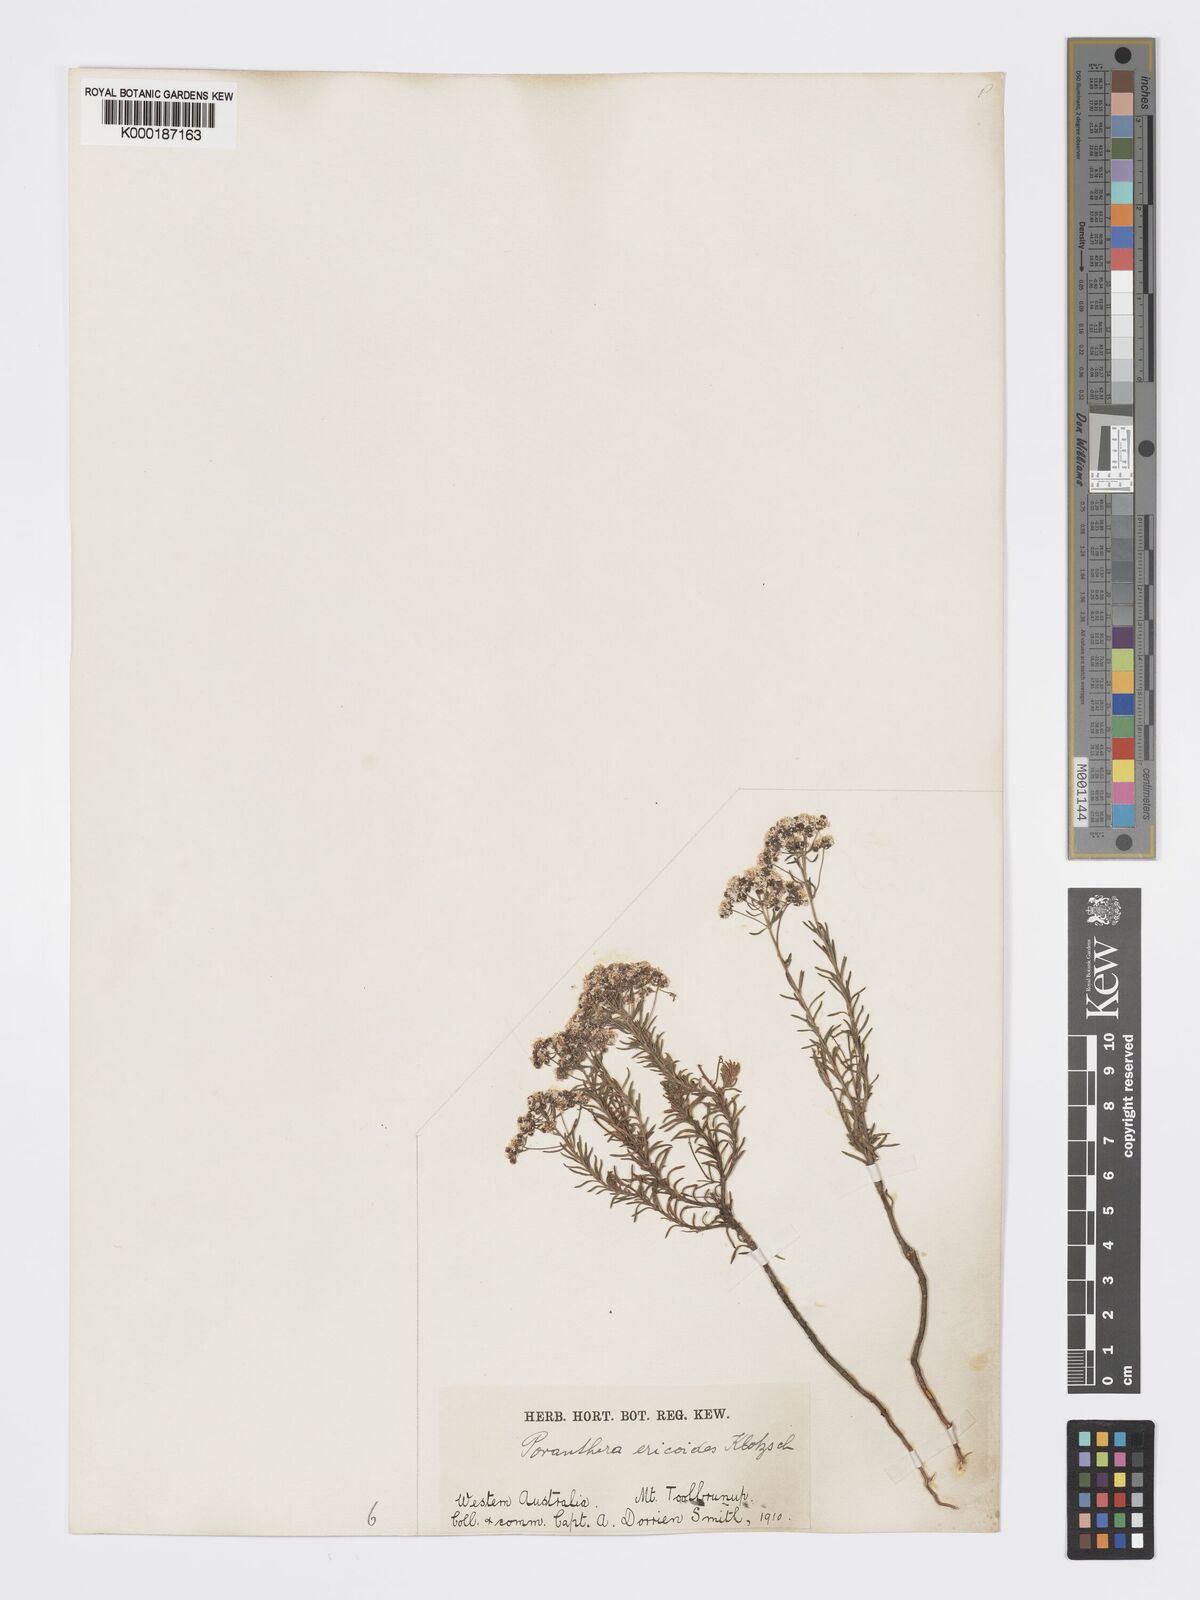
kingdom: Plantae
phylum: Tracheophyta
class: Magnoliopsida
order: Malpighiales
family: Phyllanthaceae
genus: Poranthera
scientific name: Poranthera ericoides
